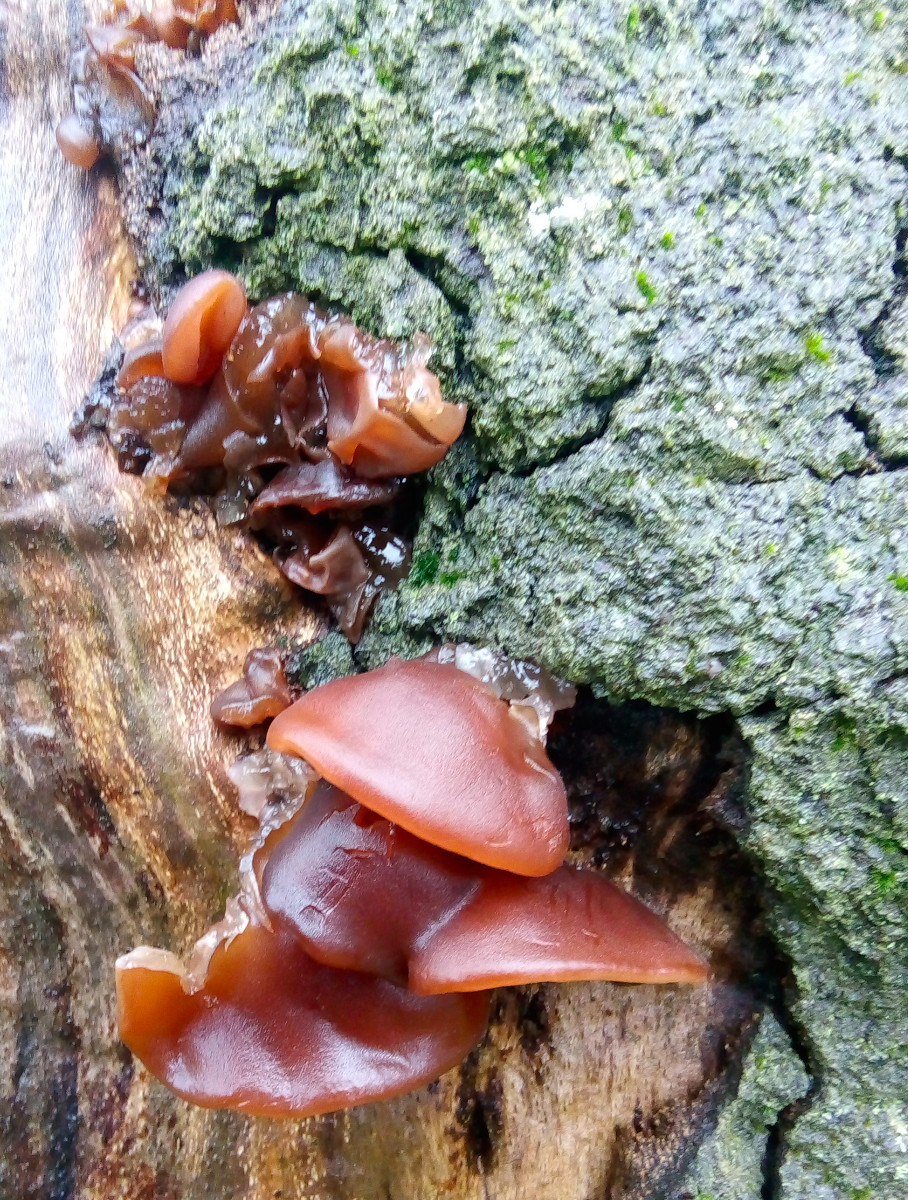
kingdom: Fungi
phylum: Basidiomycota
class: Agaricomycetes
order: Auriculariales
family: Auriculariaceae
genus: Auricularia
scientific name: Auricularia auricula-judae
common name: almindelig judasøre
